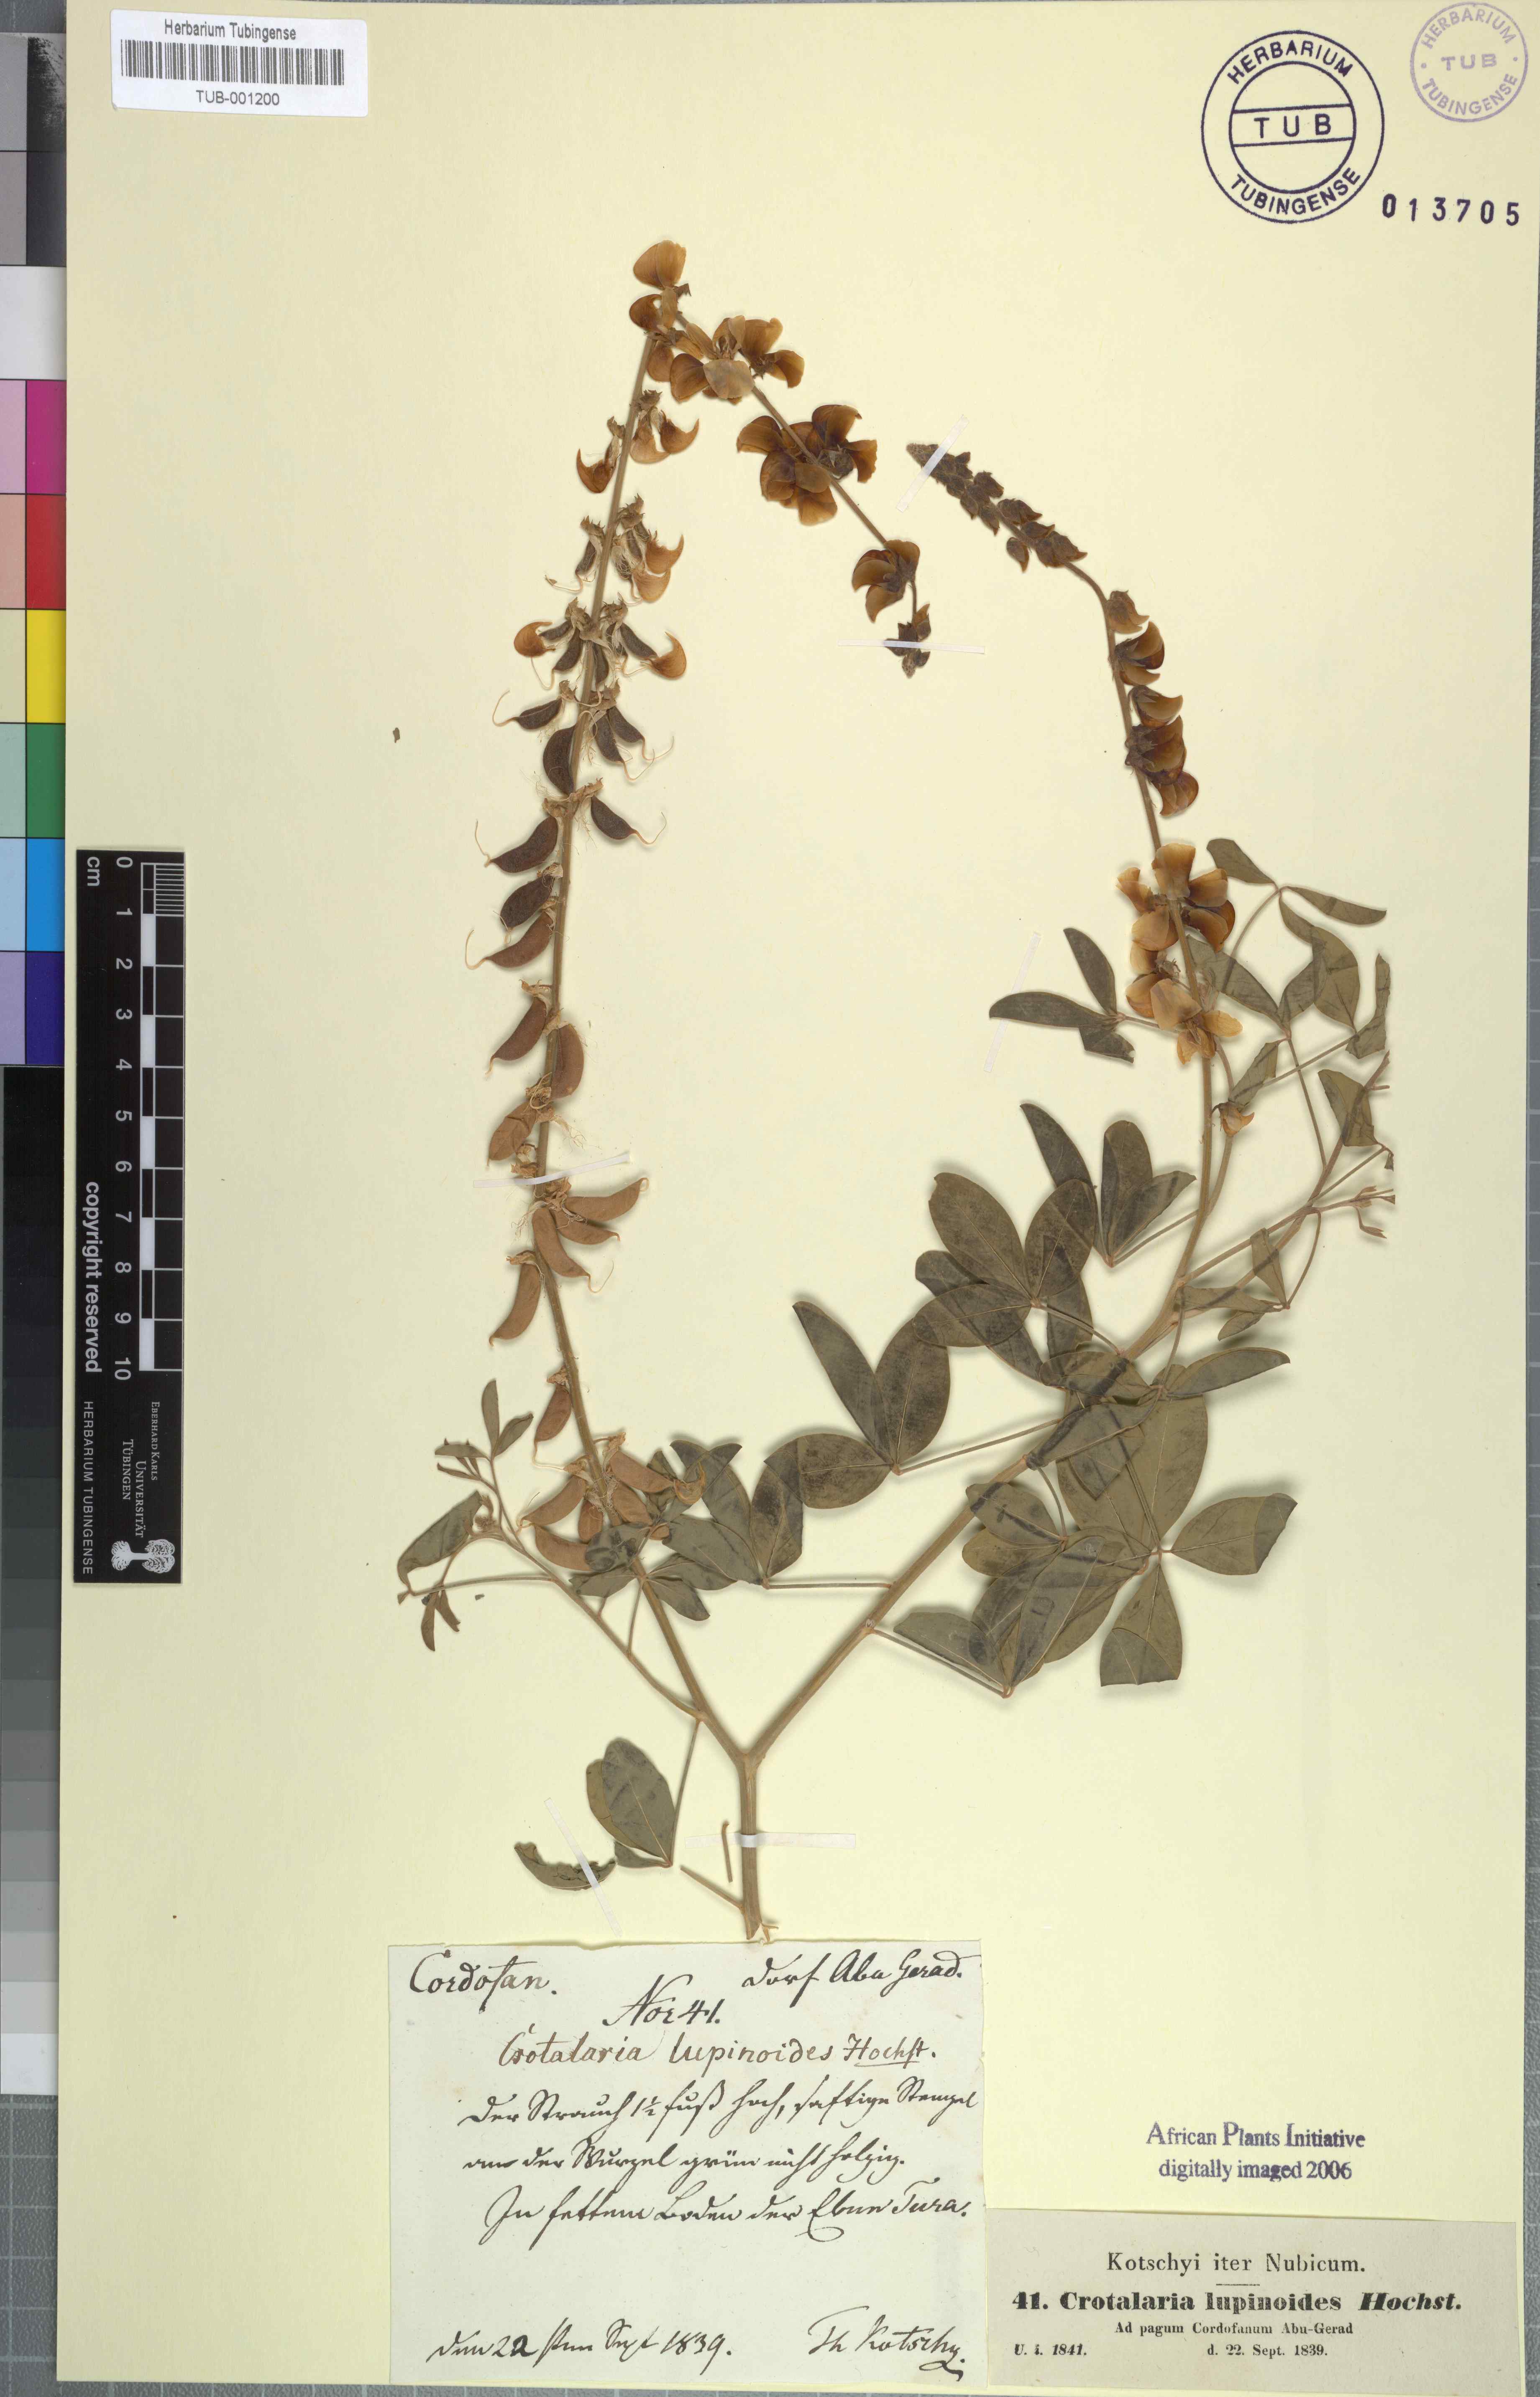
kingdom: Plantae
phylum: Tracheophyta
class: Magnoliopsida
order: Fabales
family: Fabaceae
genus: Crotalaria
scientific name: Crotalaria saltiana
